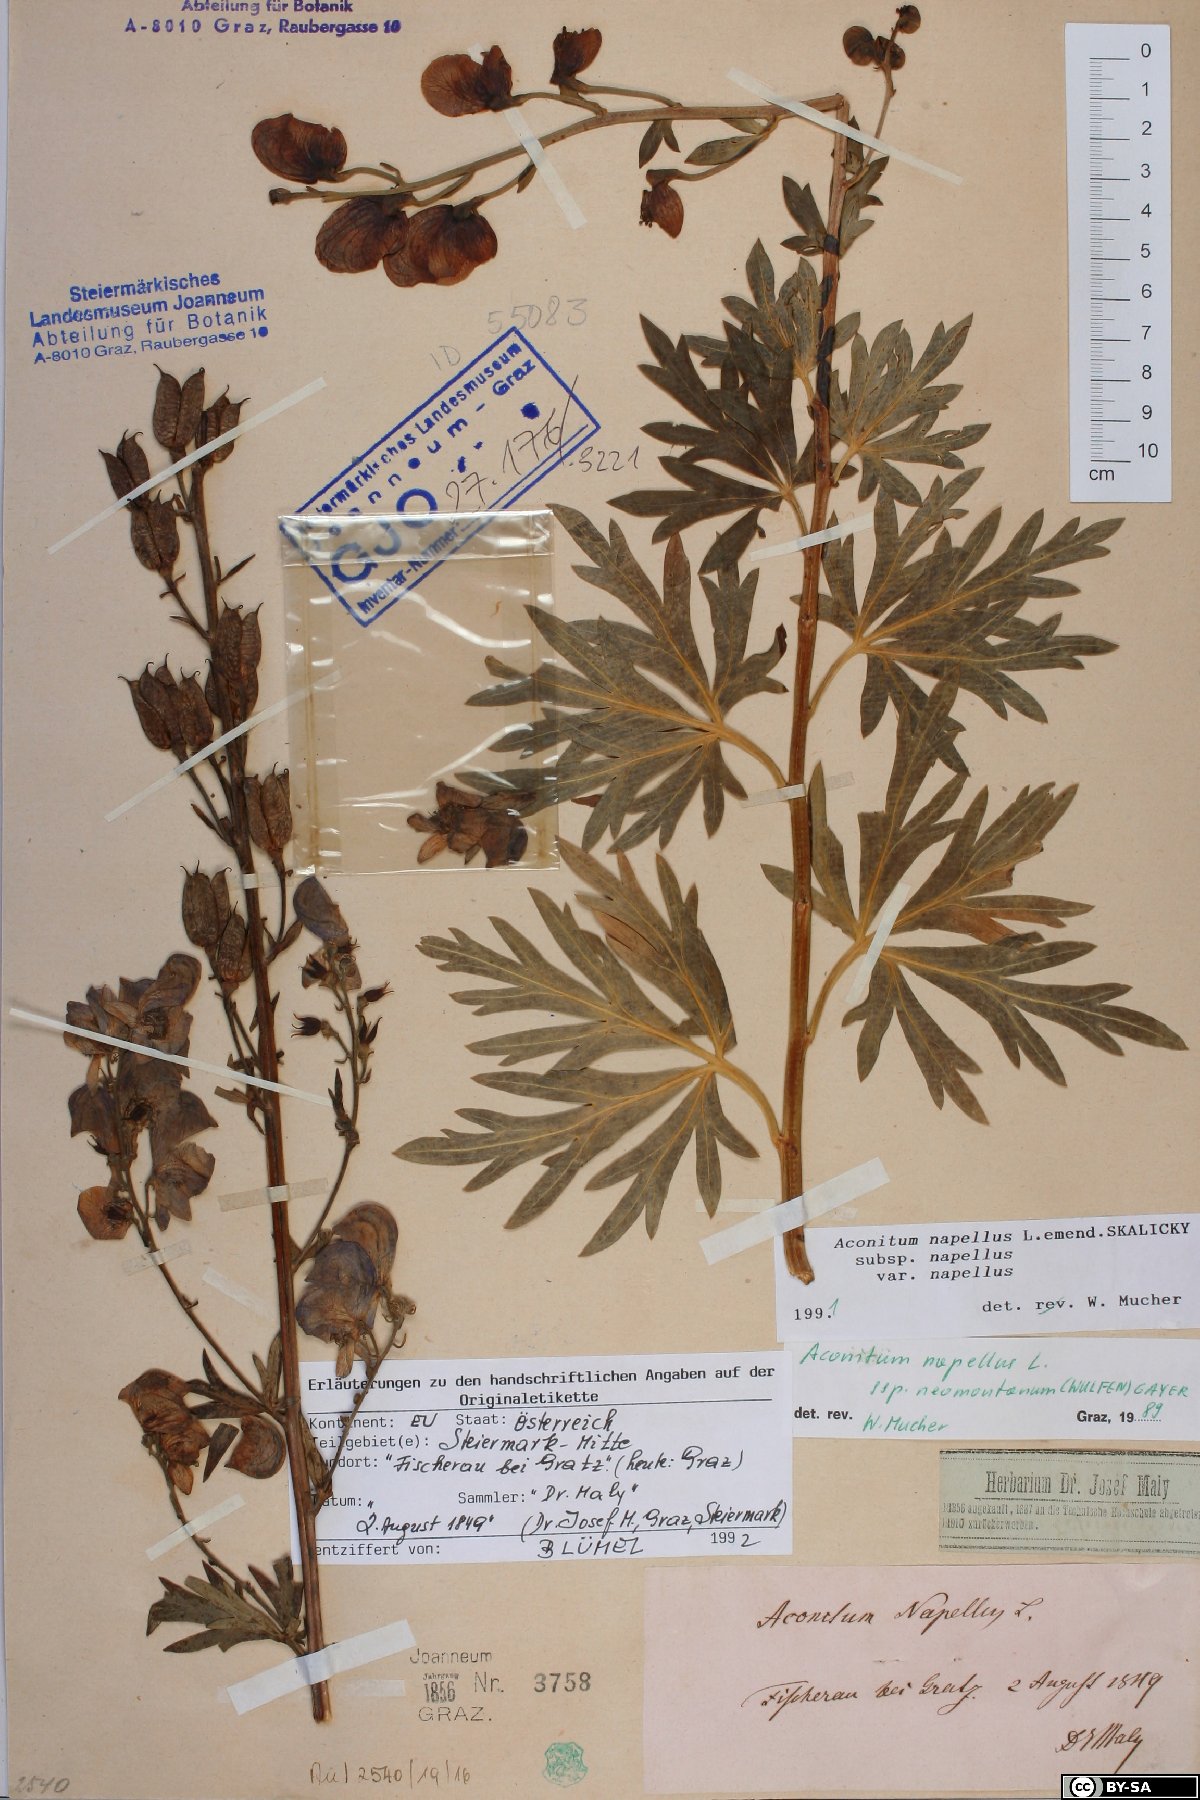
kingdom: Plantae
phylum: Tracheophyta
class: Magnoliopsida
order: Ranunculales
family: Ranunculaceae
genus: Aconitum
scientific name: Aconitum napellus
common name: Garden monkshood
